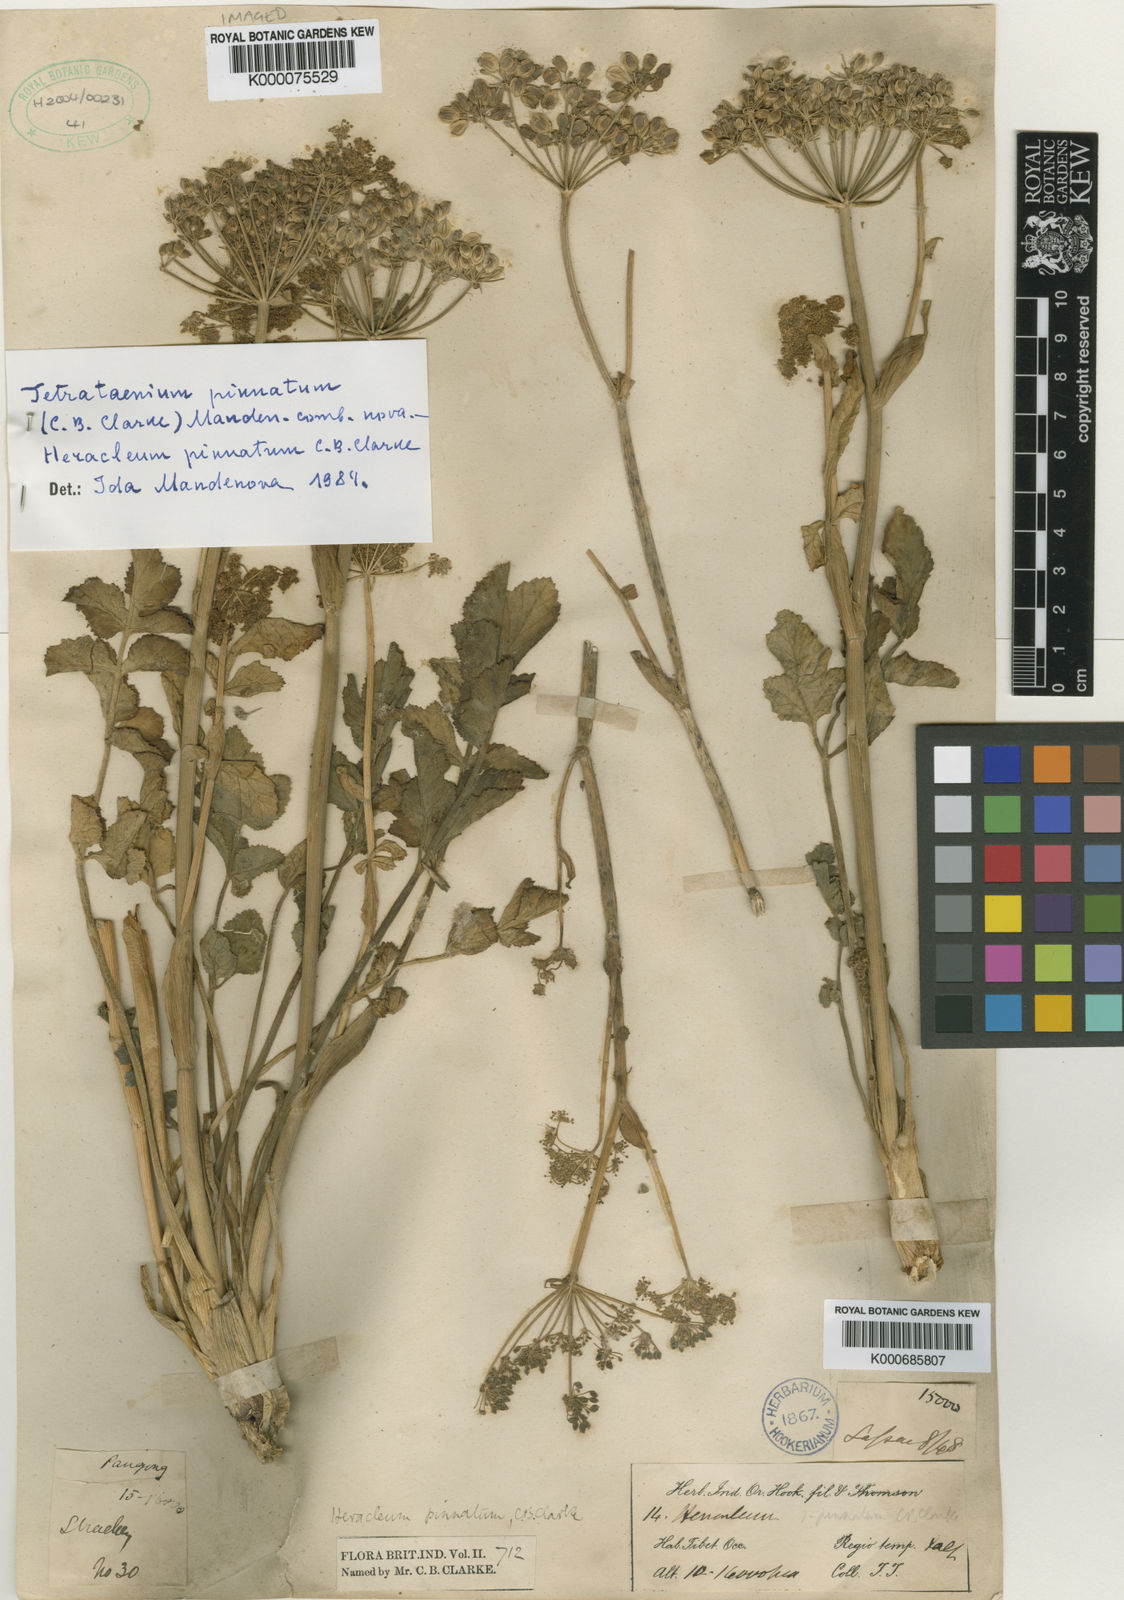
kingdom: Plantae
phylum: Tracheophyta
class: Magnoliopsida
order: Apiales
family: Apiaceae
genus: Tetrataenium
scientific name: Tetrataenium pinnatum
